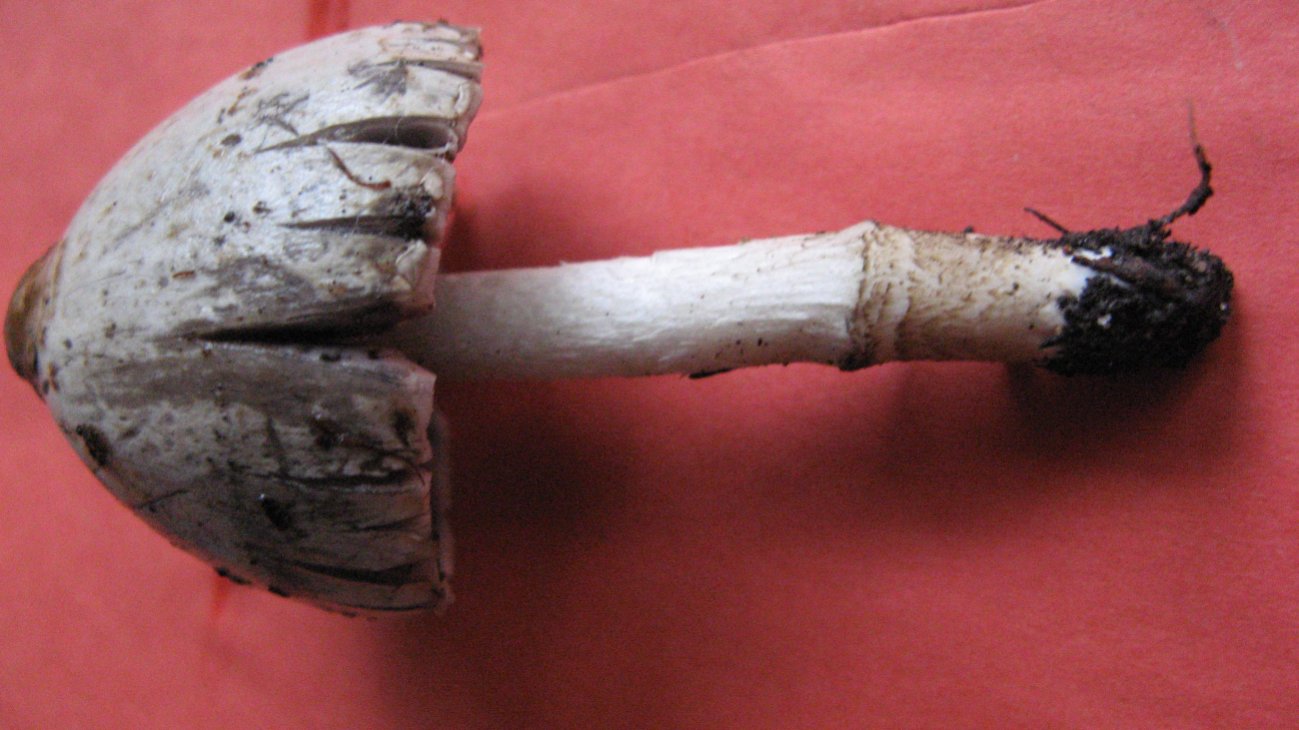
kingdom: Fungi
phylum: Basidiomycota
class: Agaricomycetes
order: Agaricales
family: Psathyrellaceae
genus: Coprinopsis
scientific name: Coprinopsis acuminata
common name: kegle-blækhat
